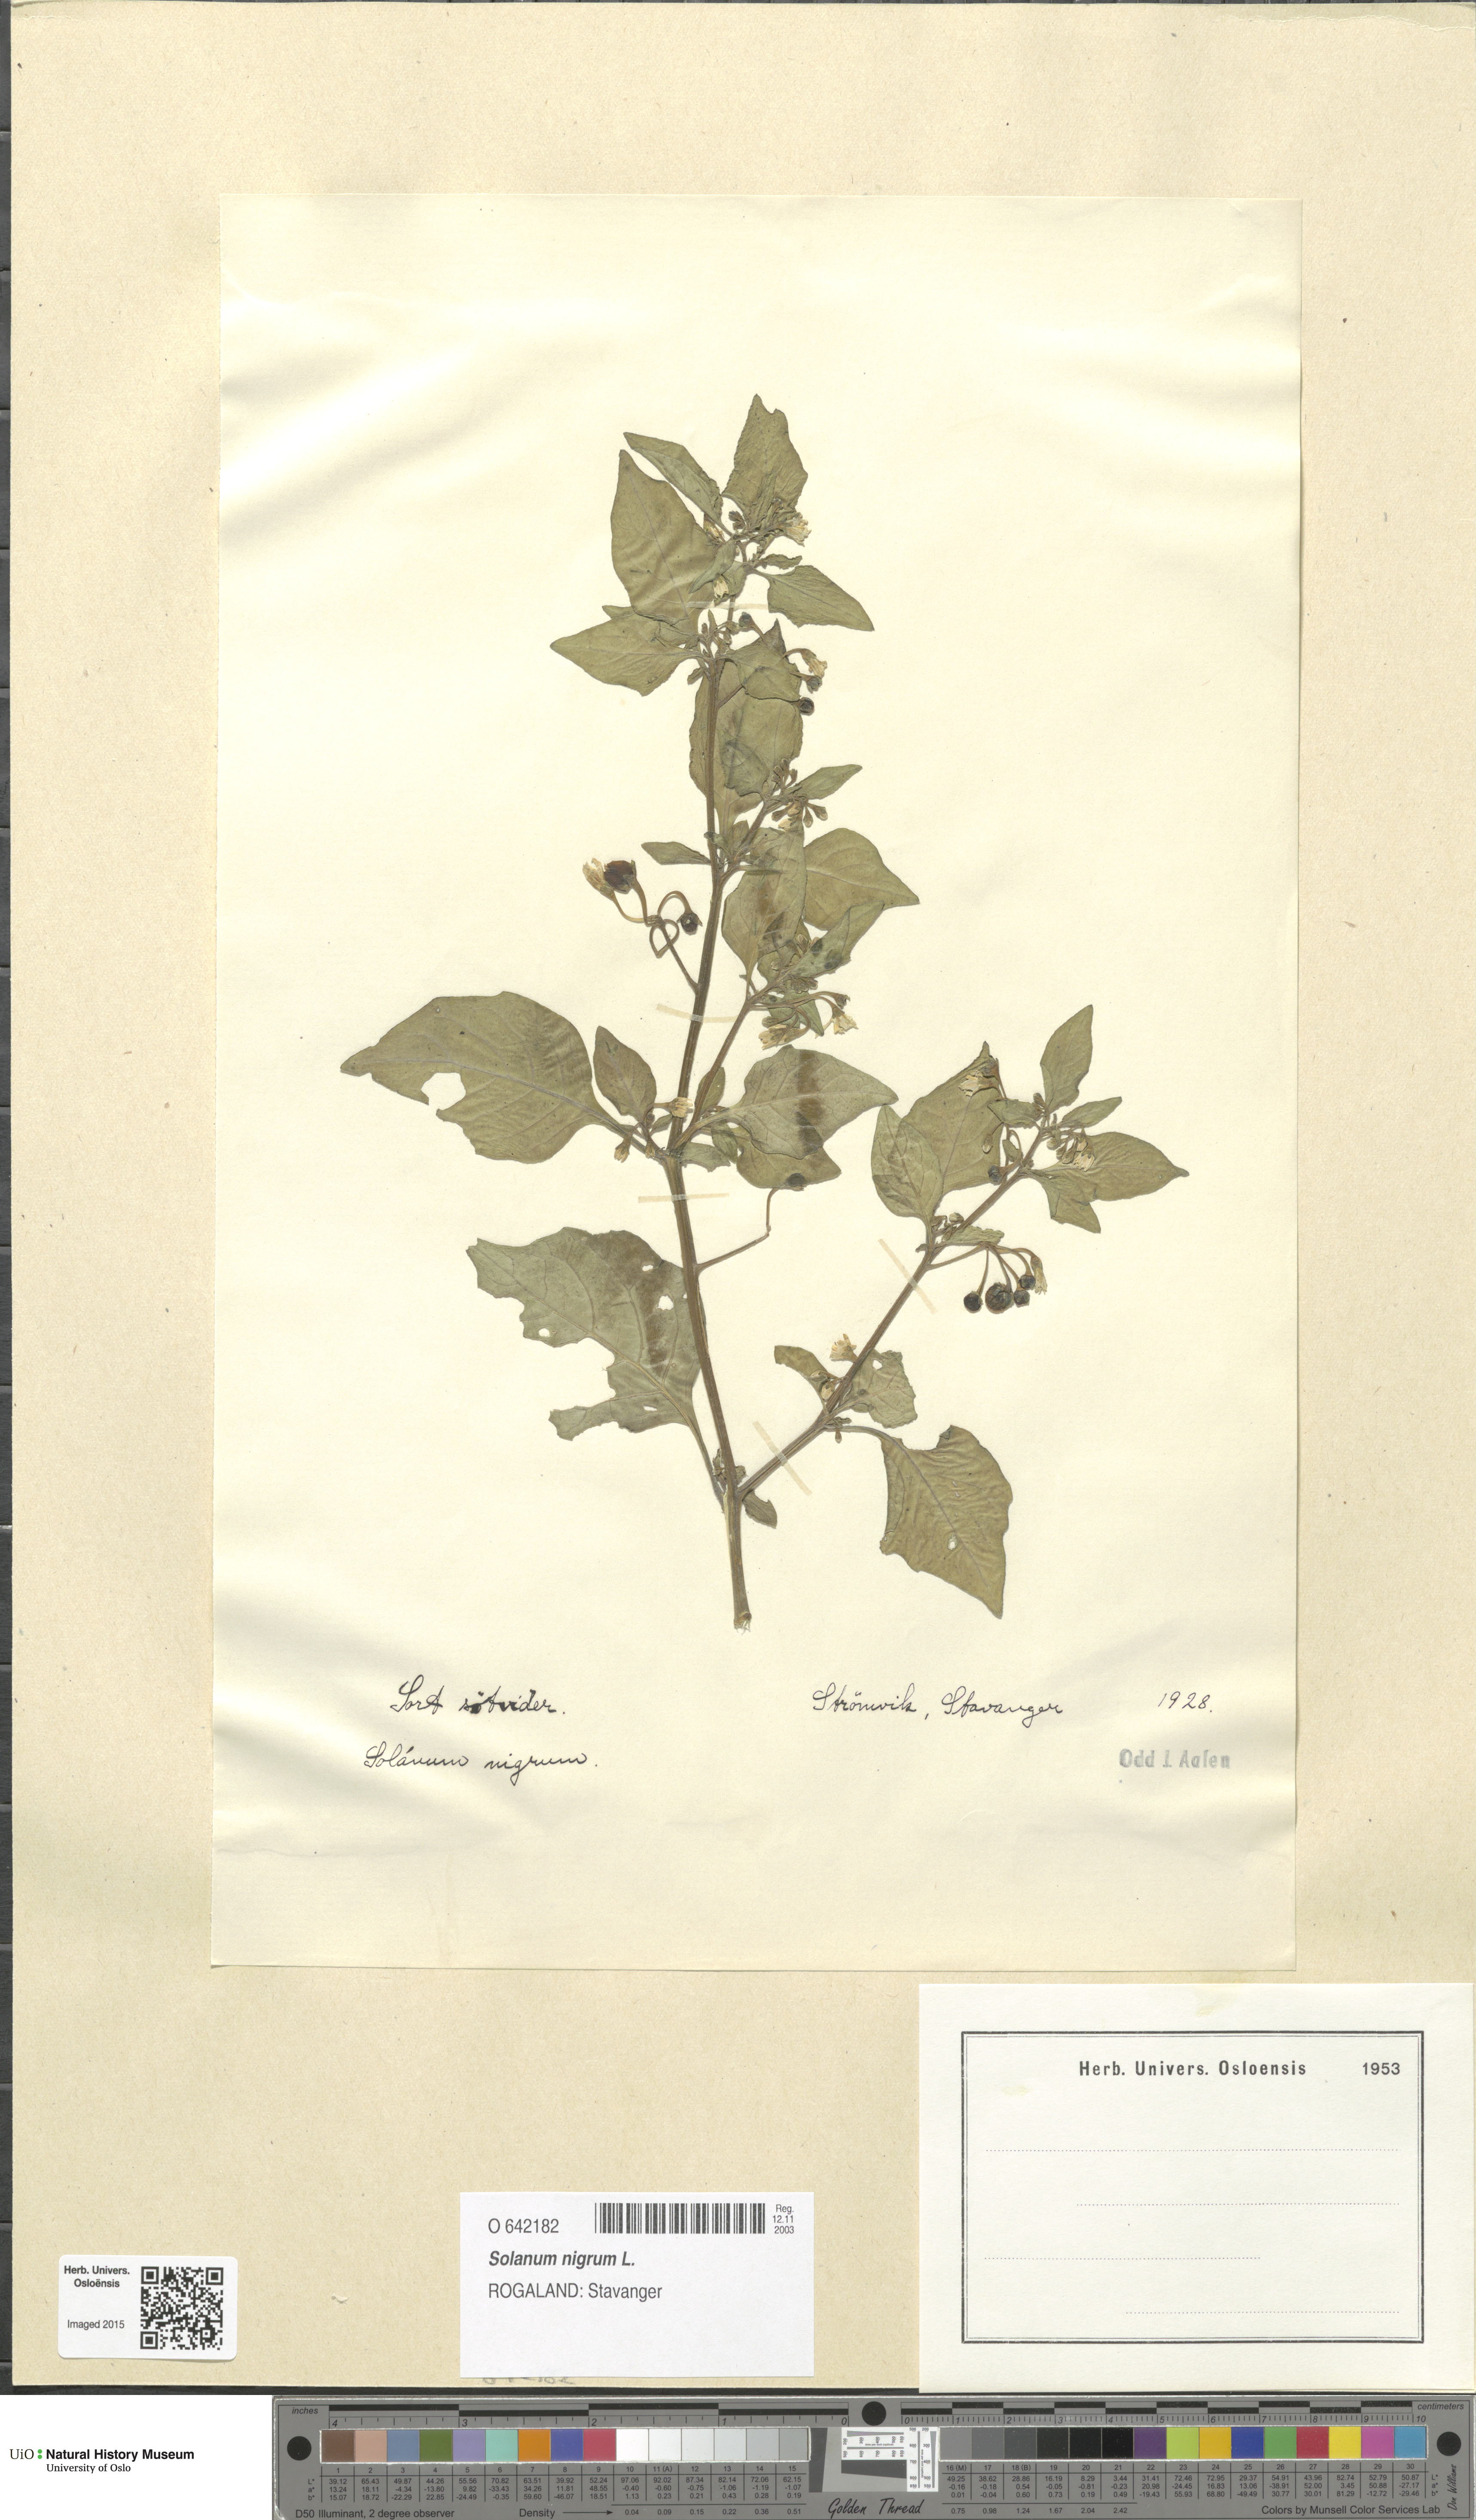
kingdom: Plantae
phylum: Tracheophyta
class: Magnoliopsida
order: Solanales
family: Solanaceae
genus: Solanum
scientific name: Solanum nigrum
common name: Black nightshade
